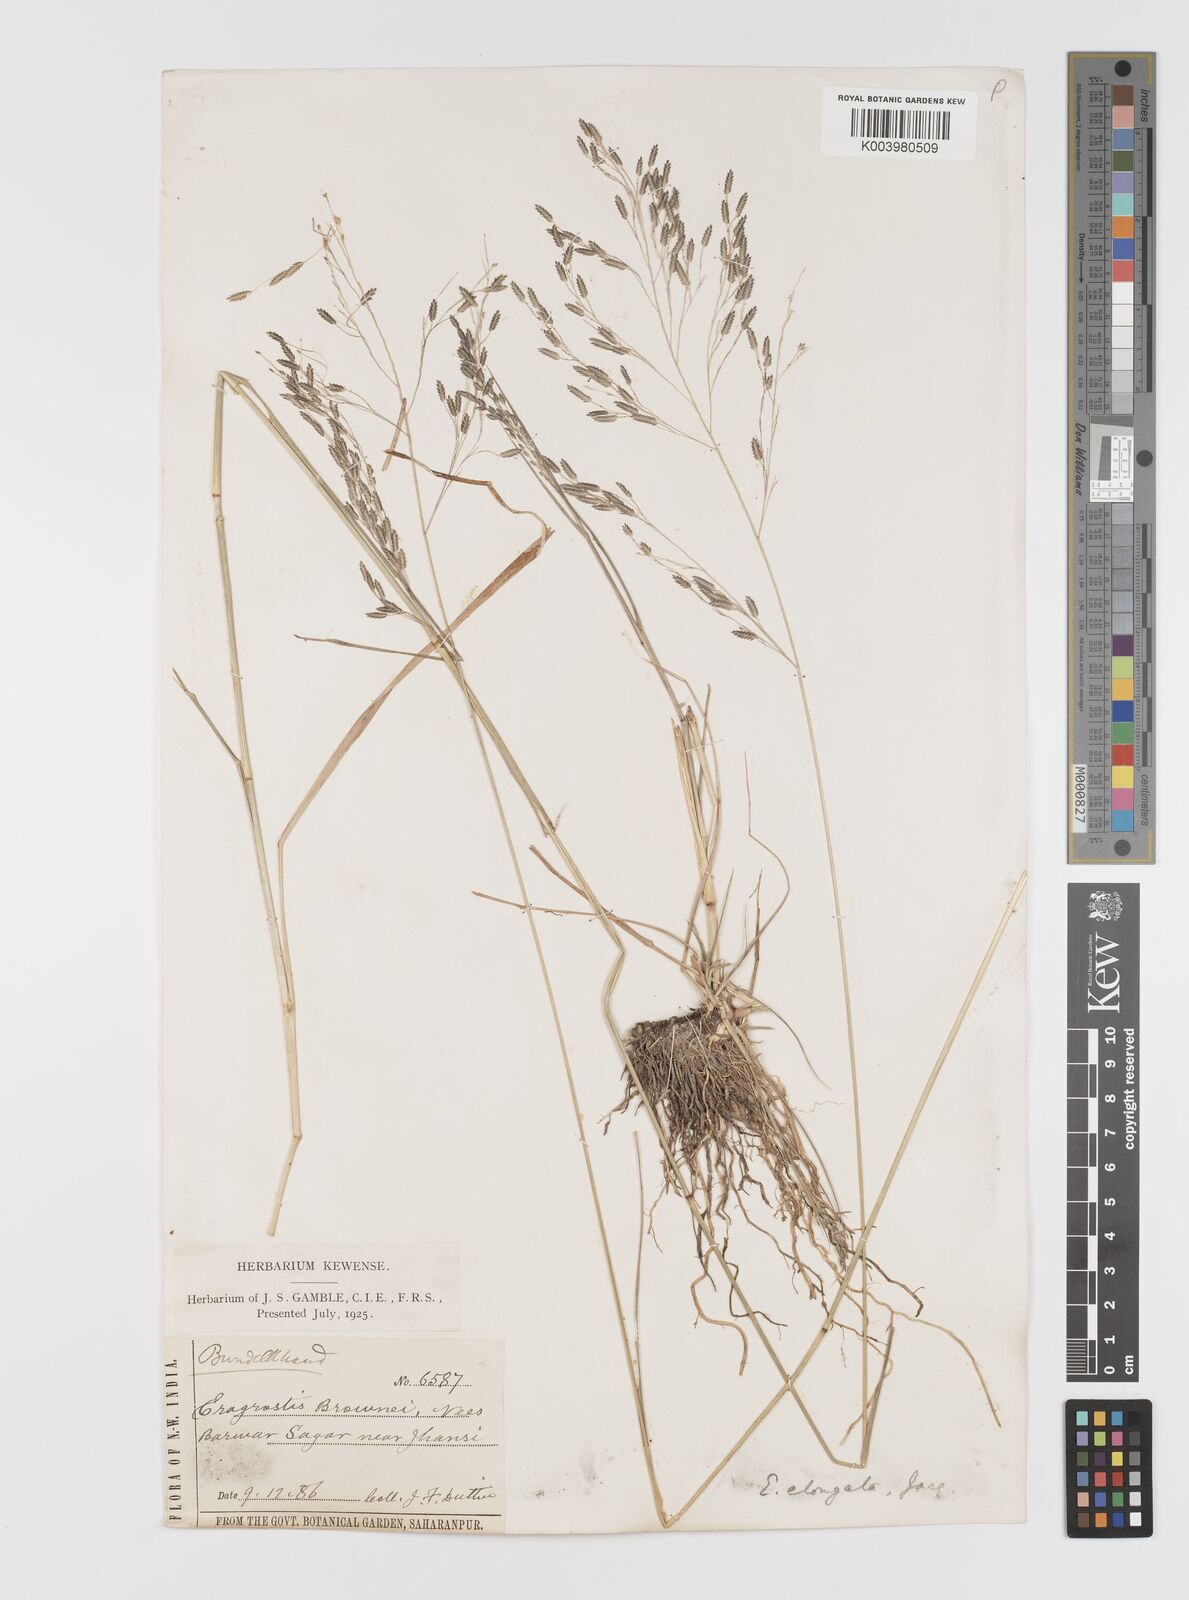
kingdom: Plantae
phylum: Tracheophyta
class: Liliopsida
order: Poales
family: Poaceae
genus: Eragrostis
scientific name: Eragrostis
